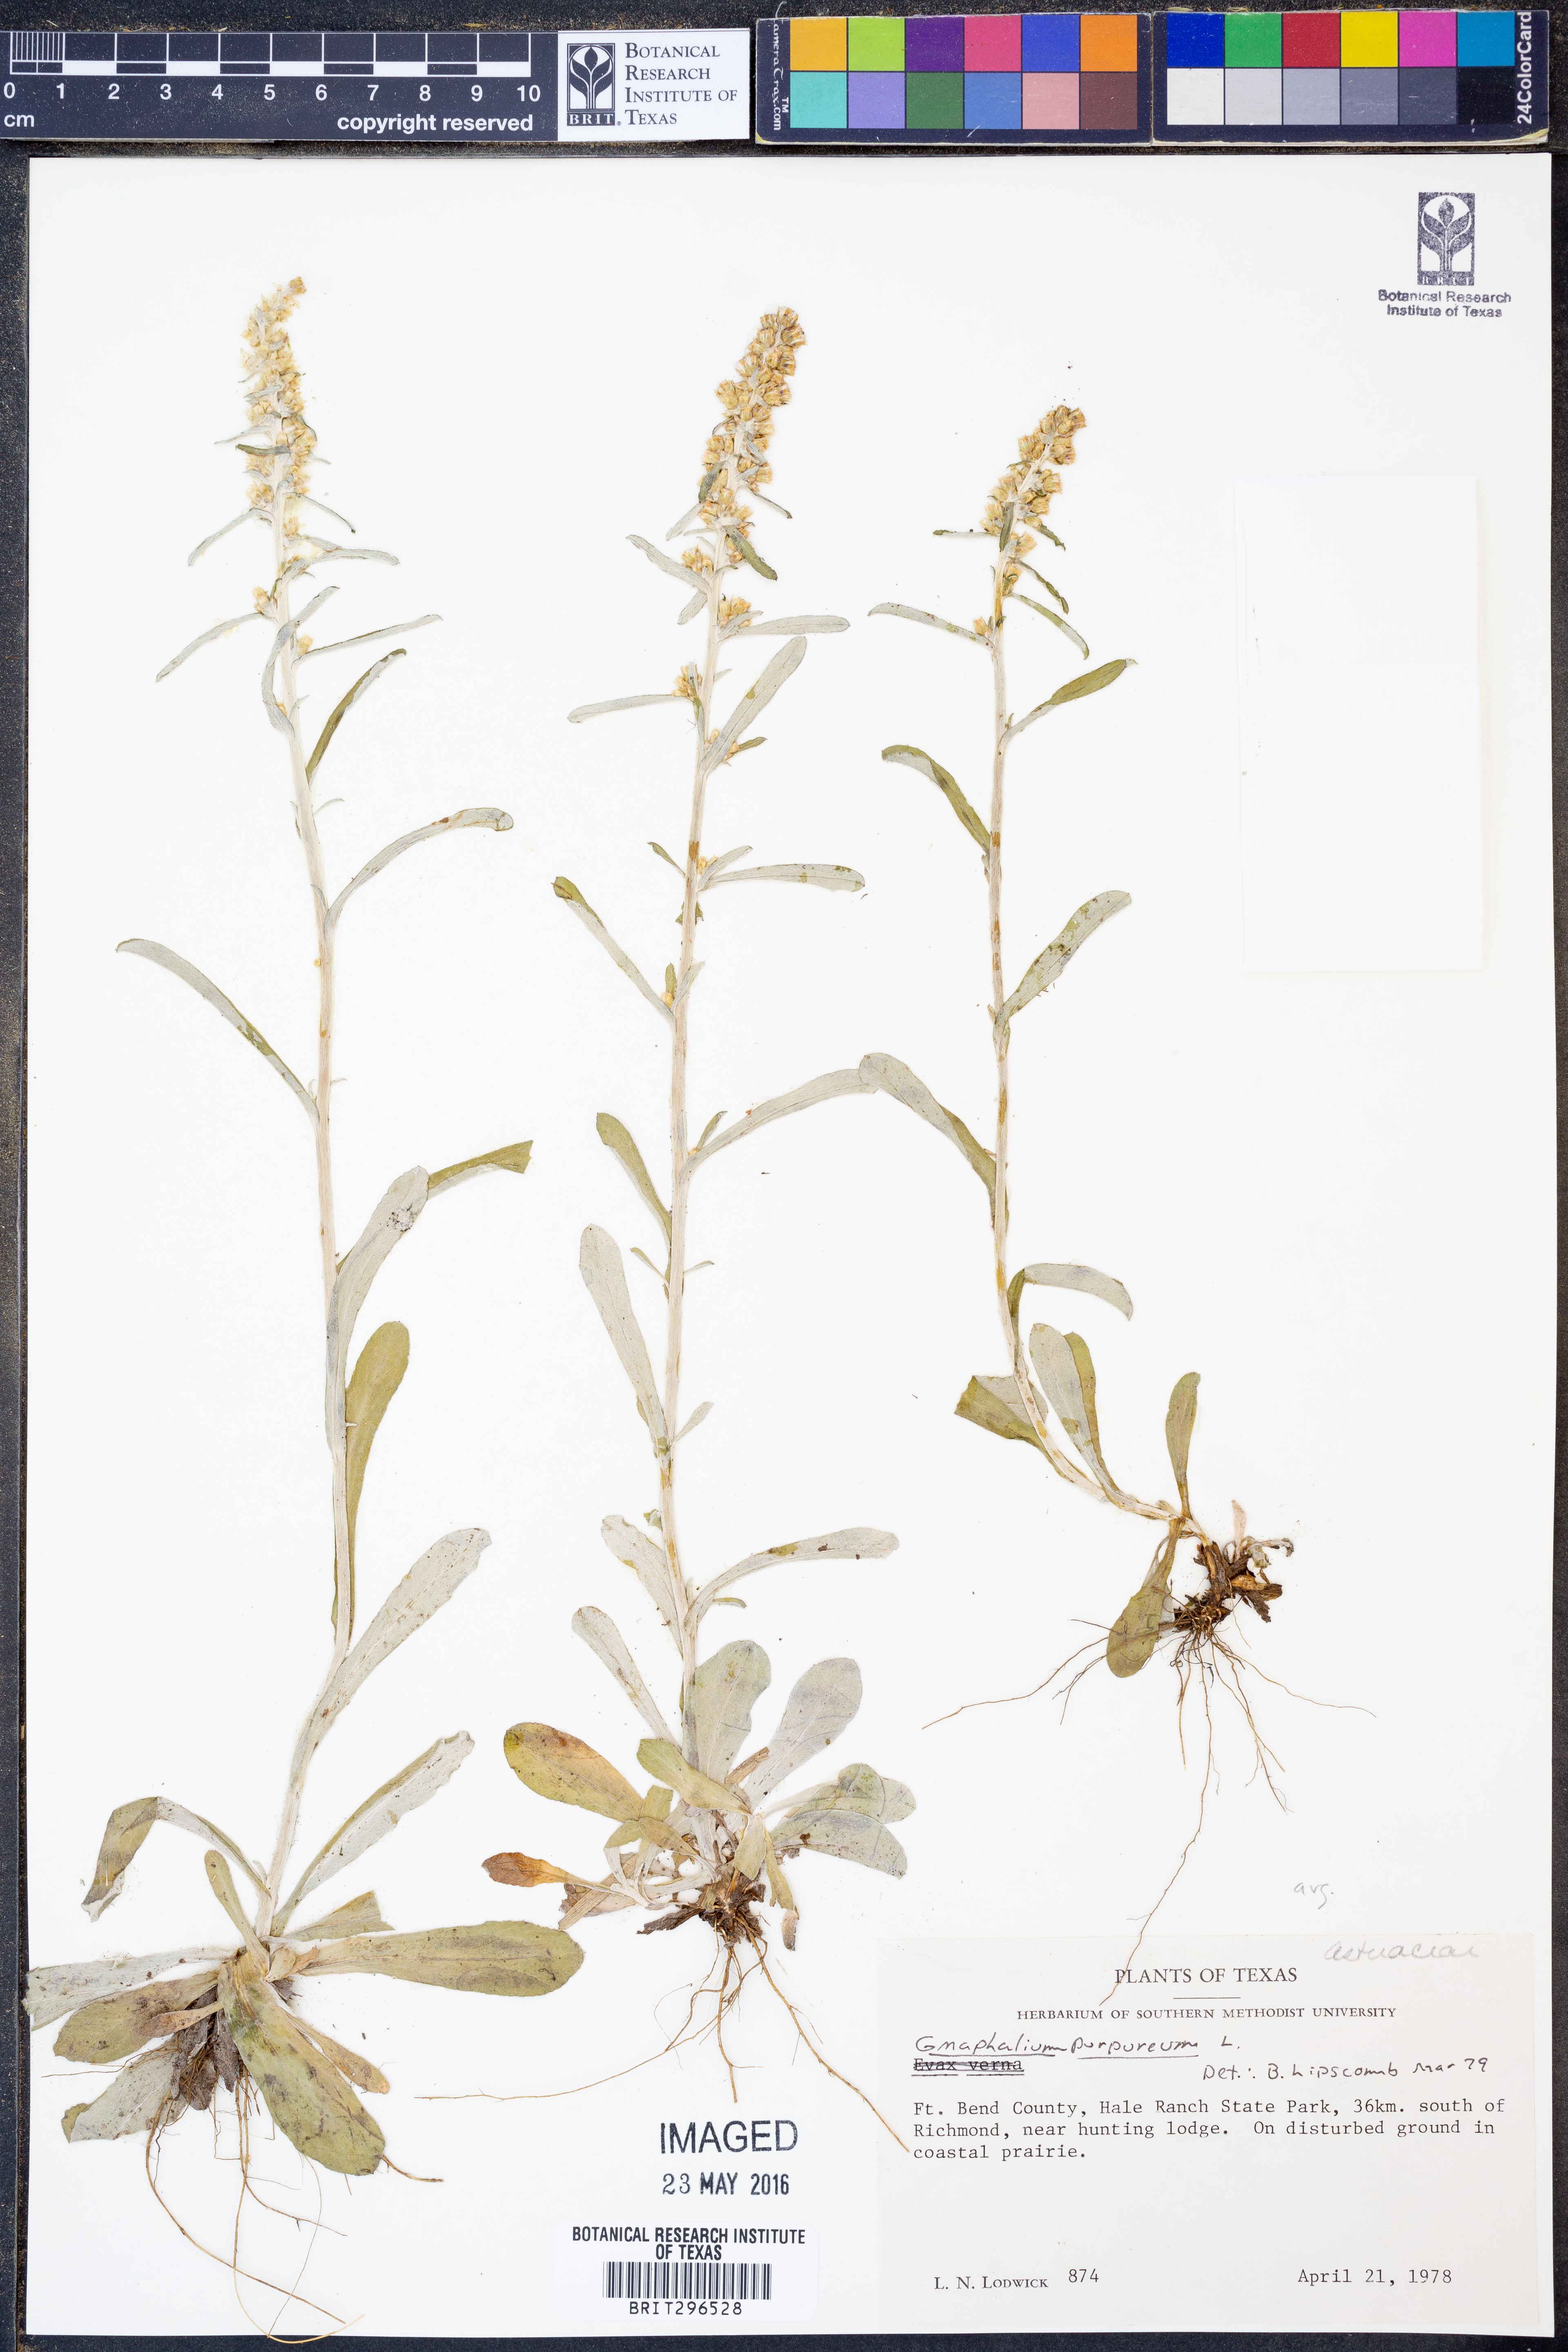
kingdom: Plantae
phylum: Tracheophyta
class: Magnoliopsida
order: Asterales
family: Asteraceae
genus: Gamochaeta
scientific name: Gamochaeta purpurea
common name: Purple cudweed
